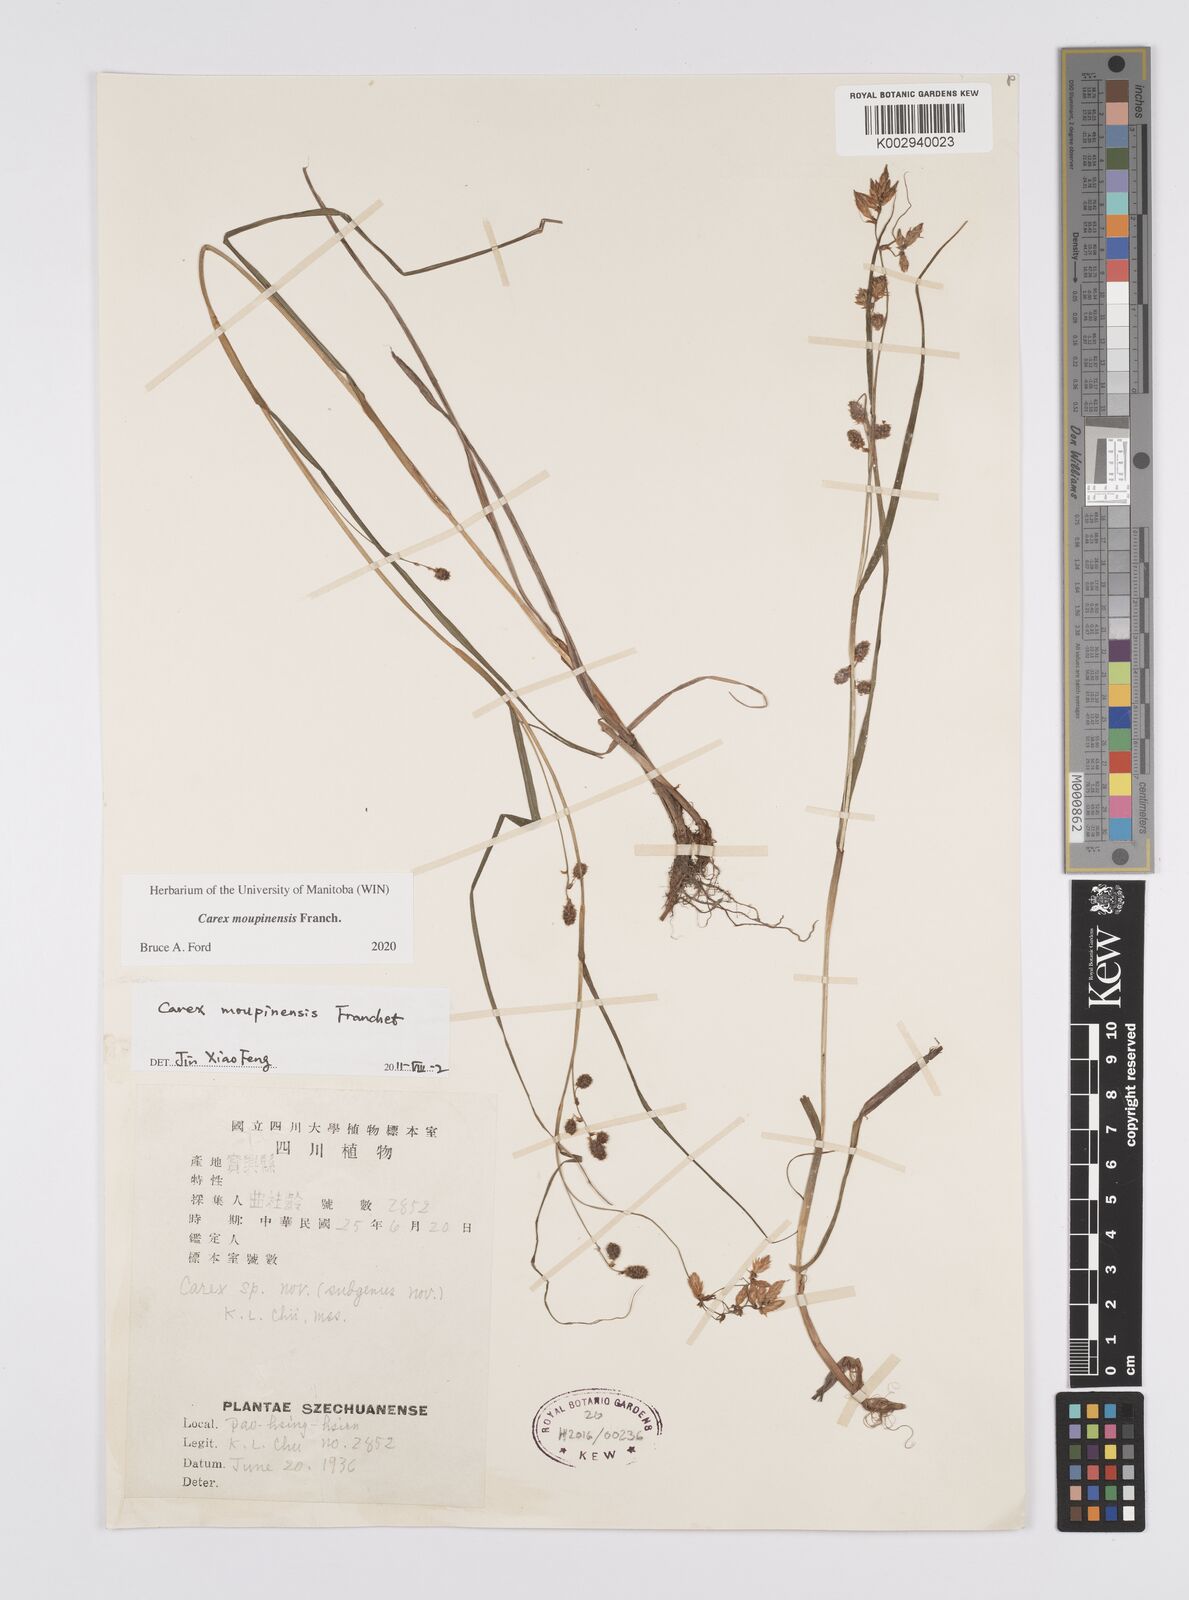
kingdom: Plantae
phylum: Tracheophyta
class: Liliopsida
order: Poales
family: Cyperaceae
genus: Carex
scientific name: Carex moupinensis
